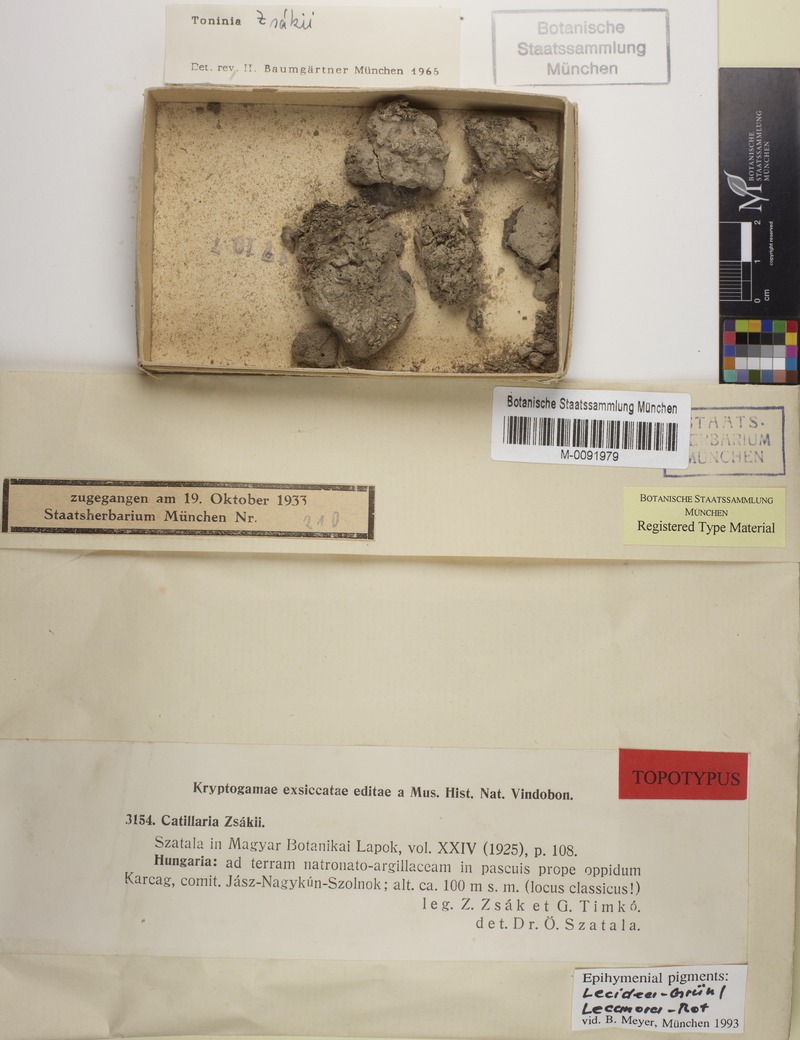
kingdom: Fungi
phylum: Ascomycota
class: Lecanoromycetes
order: Lecanorales
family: Byssolomataceae
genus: Micarea
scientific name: Micarea melaenida
